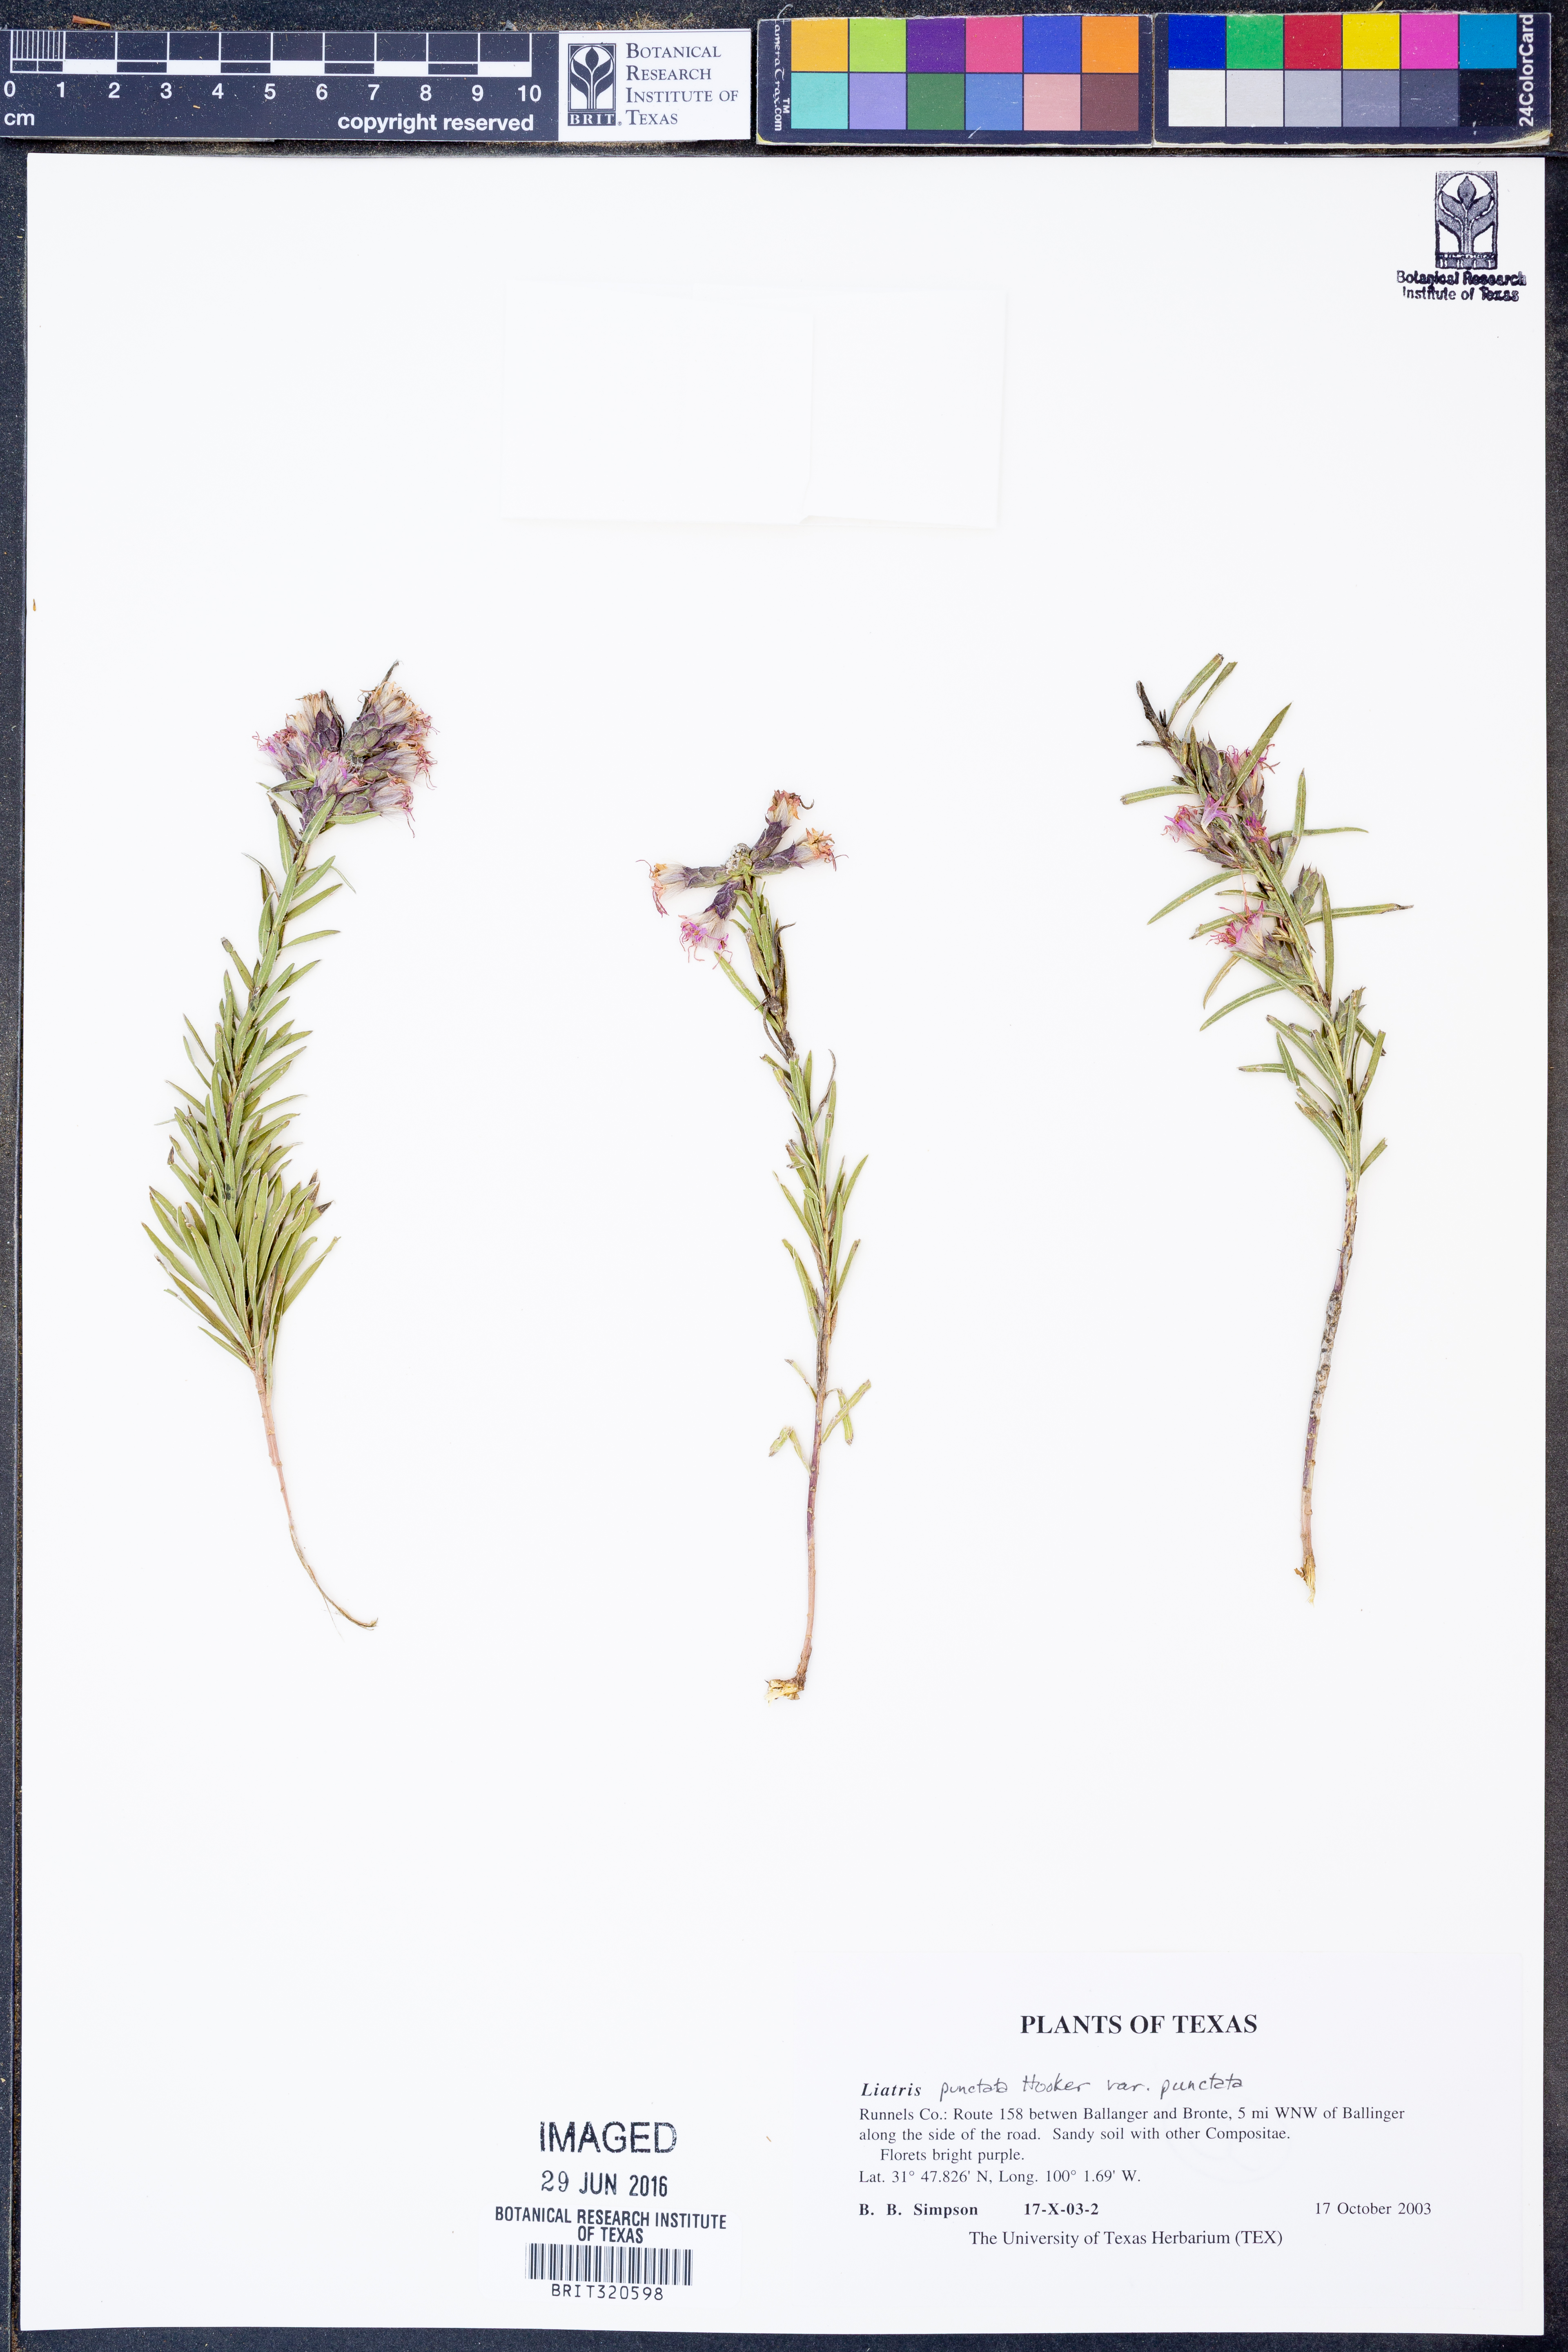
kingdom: Plantae
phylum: Tracheophyta
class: Magnoliopsida
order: Asterales
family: Asteraceae
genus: Liatris
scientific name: Liatris punctata
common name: Dotted gayfeather
